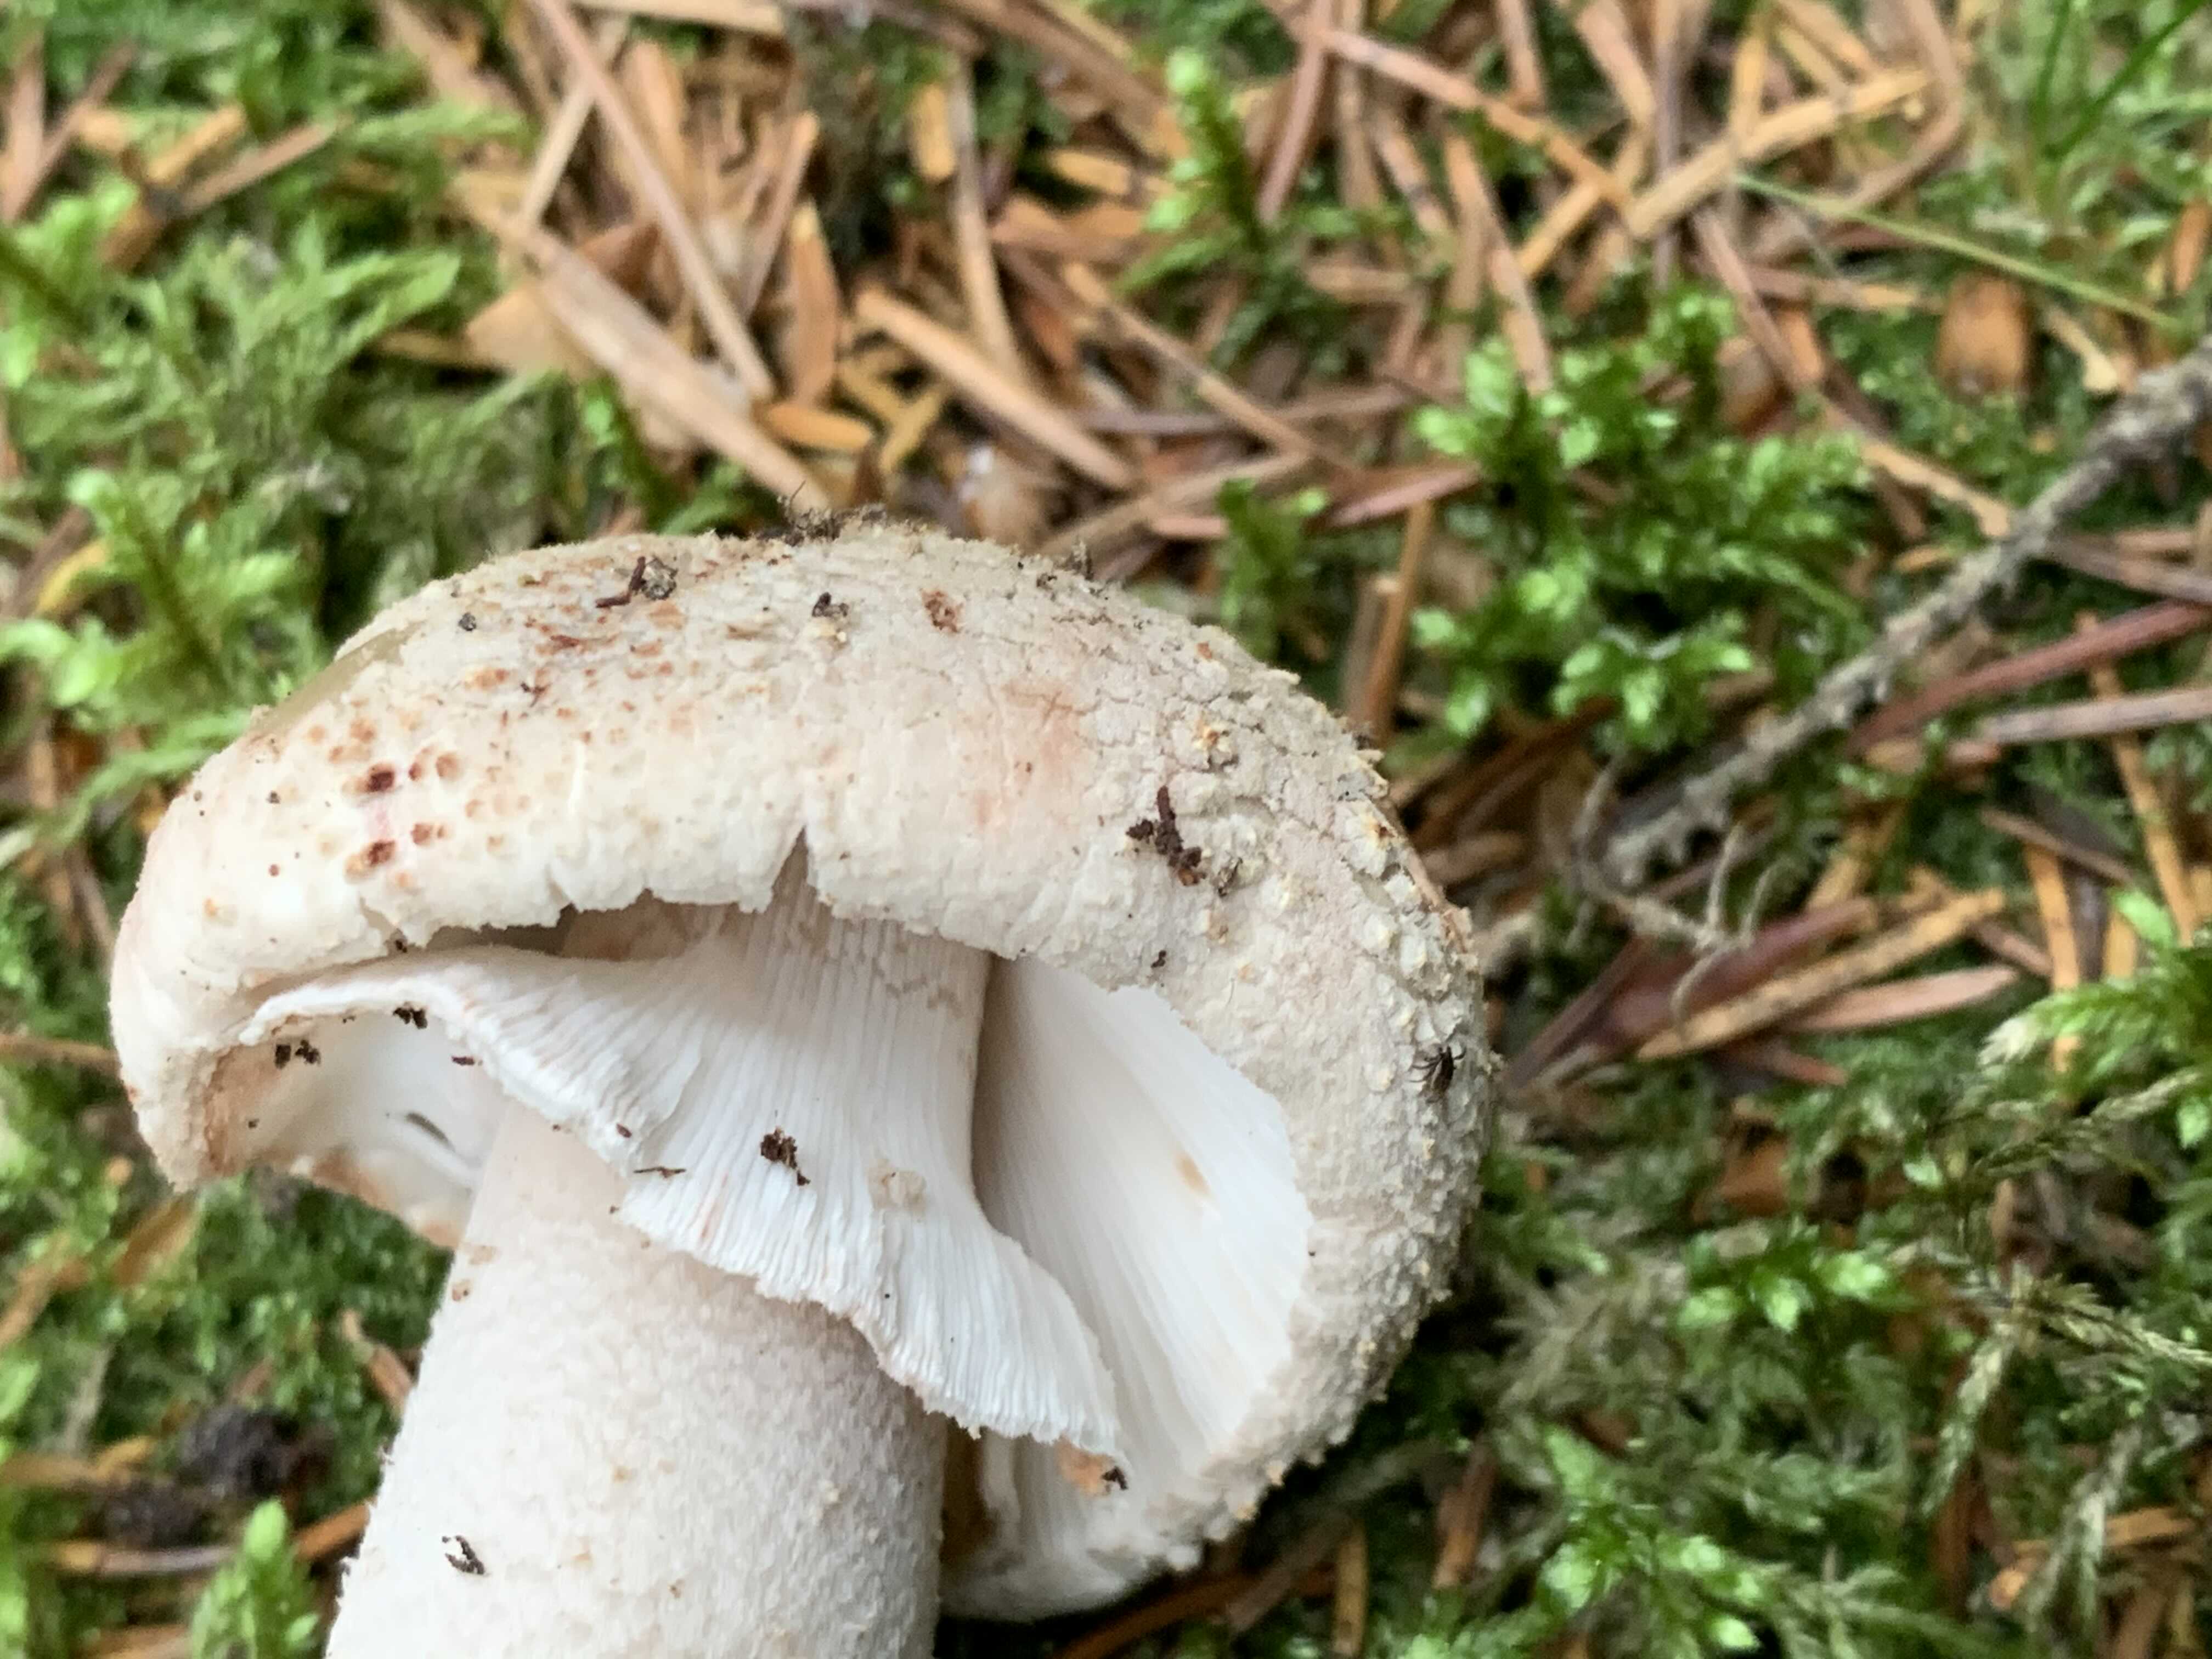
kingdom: Fungi
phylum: Basidiomycota
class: Agaricomycetes
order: Agaricales
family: Amanitaceae
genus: Amanita
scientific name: Amanita rubescens
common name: rødmende fluesvamp
